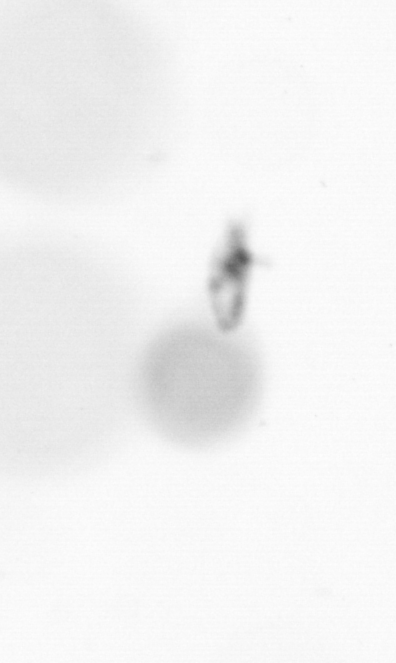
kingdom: Animalia
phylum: Arthropoda
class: Copepoda
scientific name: Copepoda
